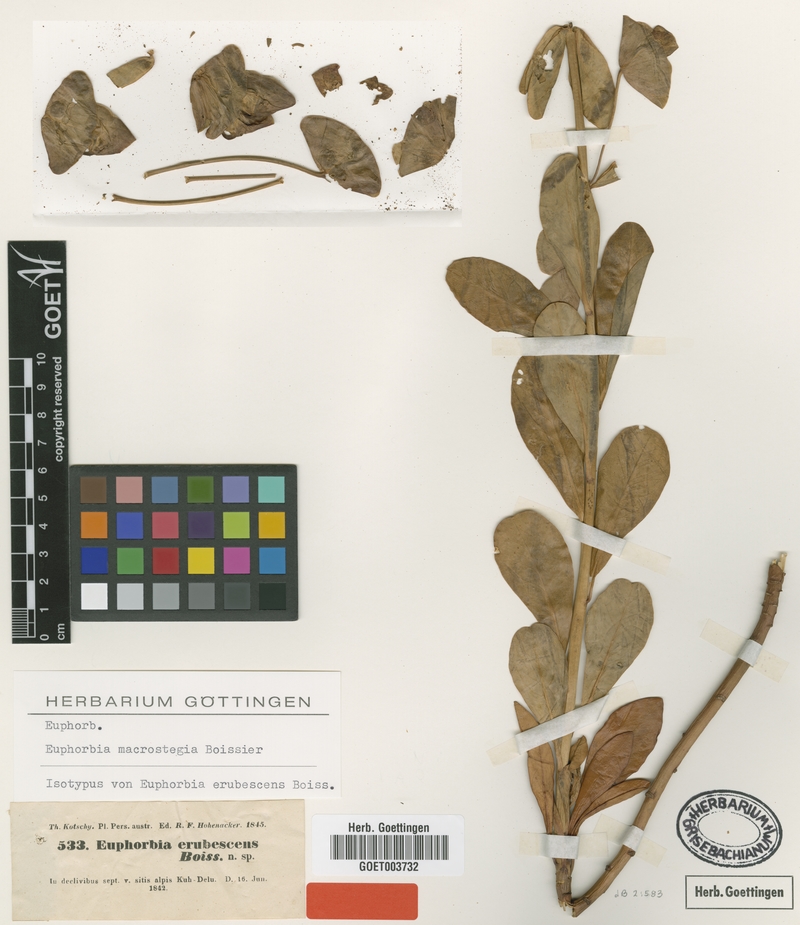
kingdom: Plantae
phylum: Tracheophyta
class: Magnoliopsida
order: Malpighiales
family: Euphorbiaceae
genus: Euphorbia
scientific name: Euphorbia erubescens
